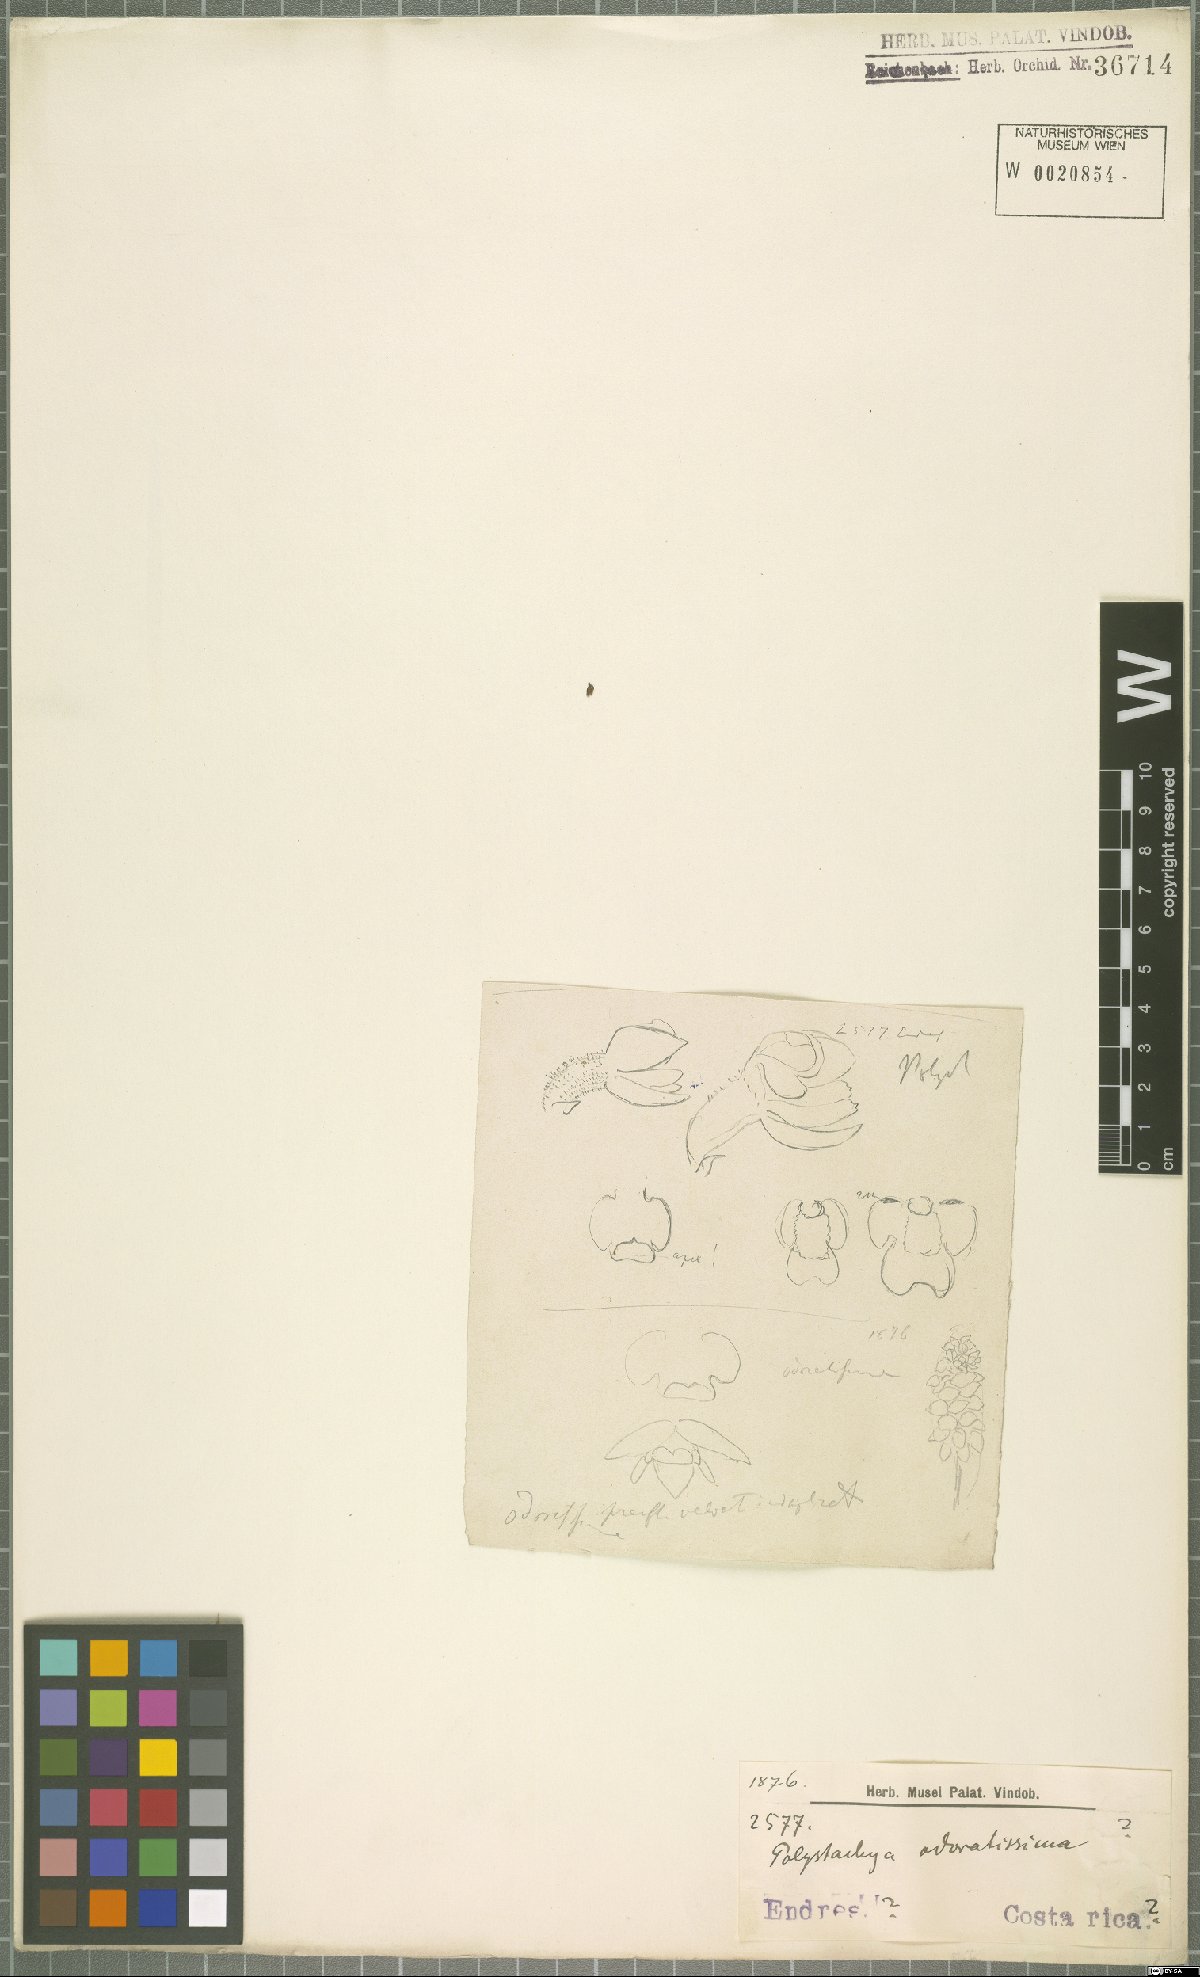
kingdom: Plantae
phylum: Tracheophyta
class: Liliopsida
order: Asparagales
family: Orchidaceae
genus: Polystachya
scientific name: Polystachya
